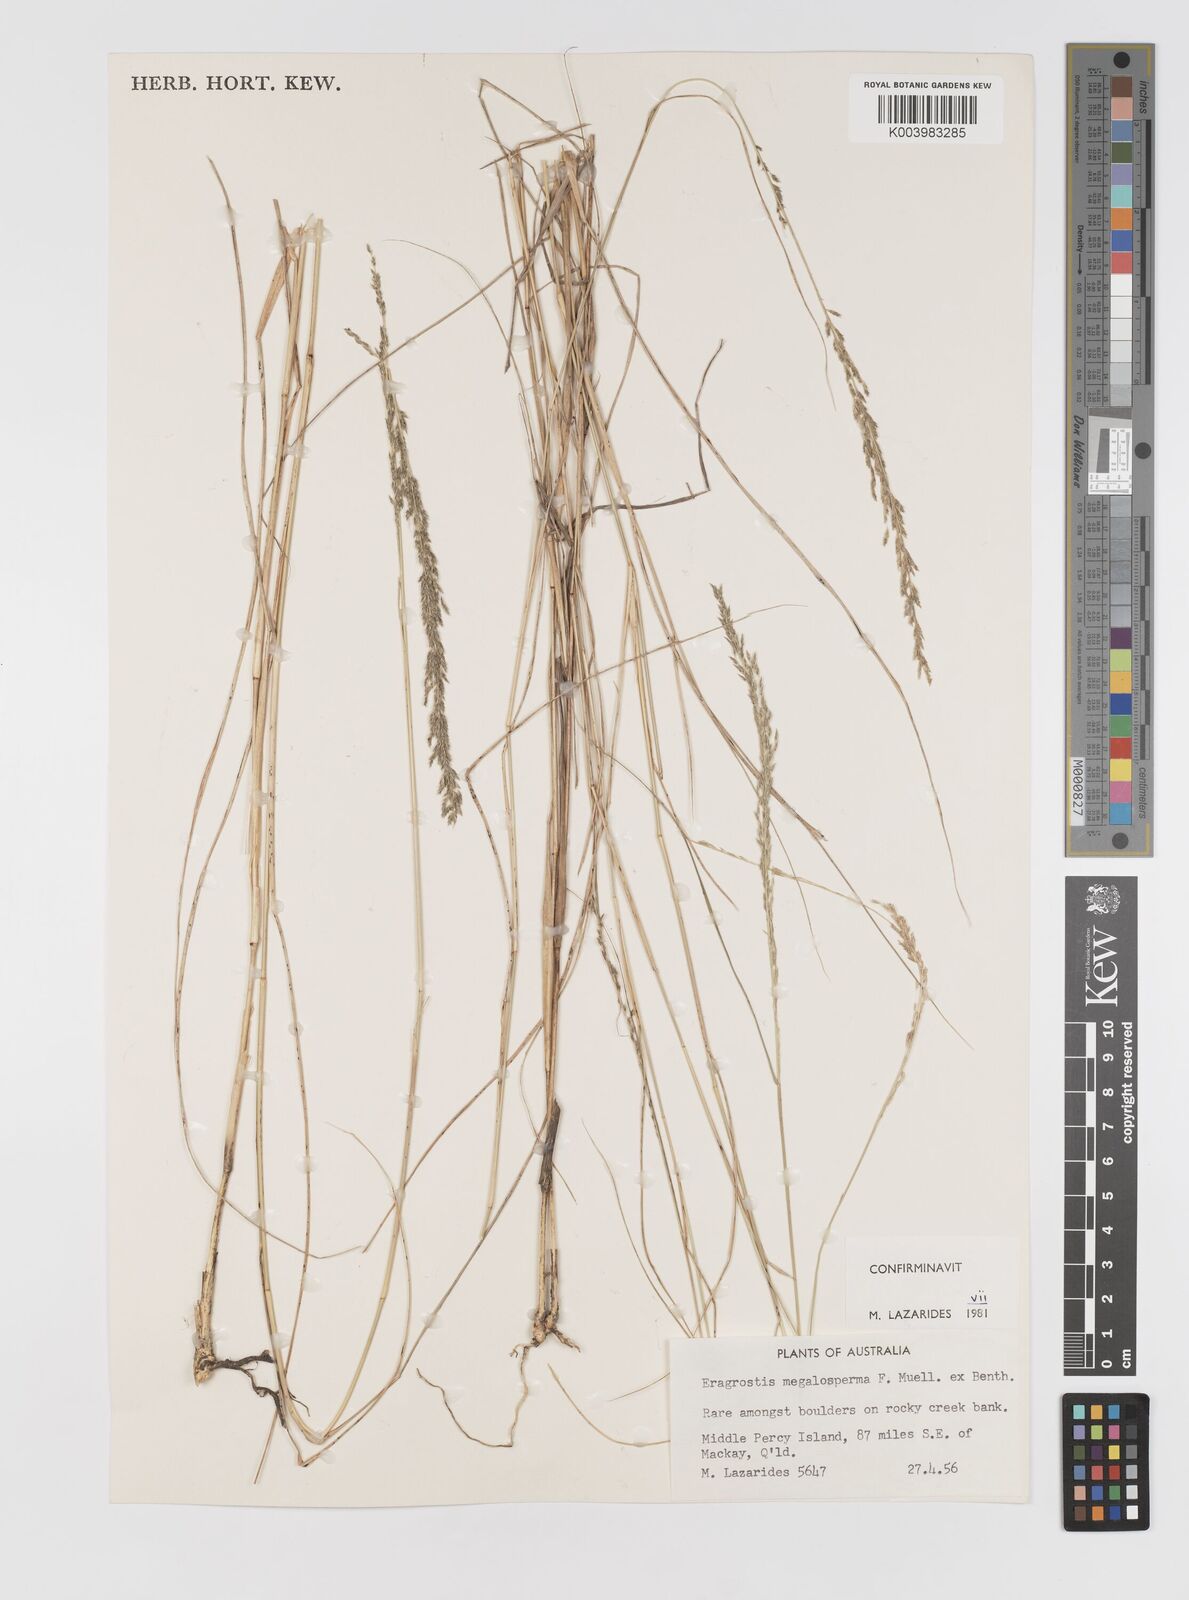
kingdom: Plantae
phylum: Tracheophyta
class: Liliopsida
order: Poales
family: Poaceae
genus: Sporobolus
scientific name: Sporobolus megalospermus
